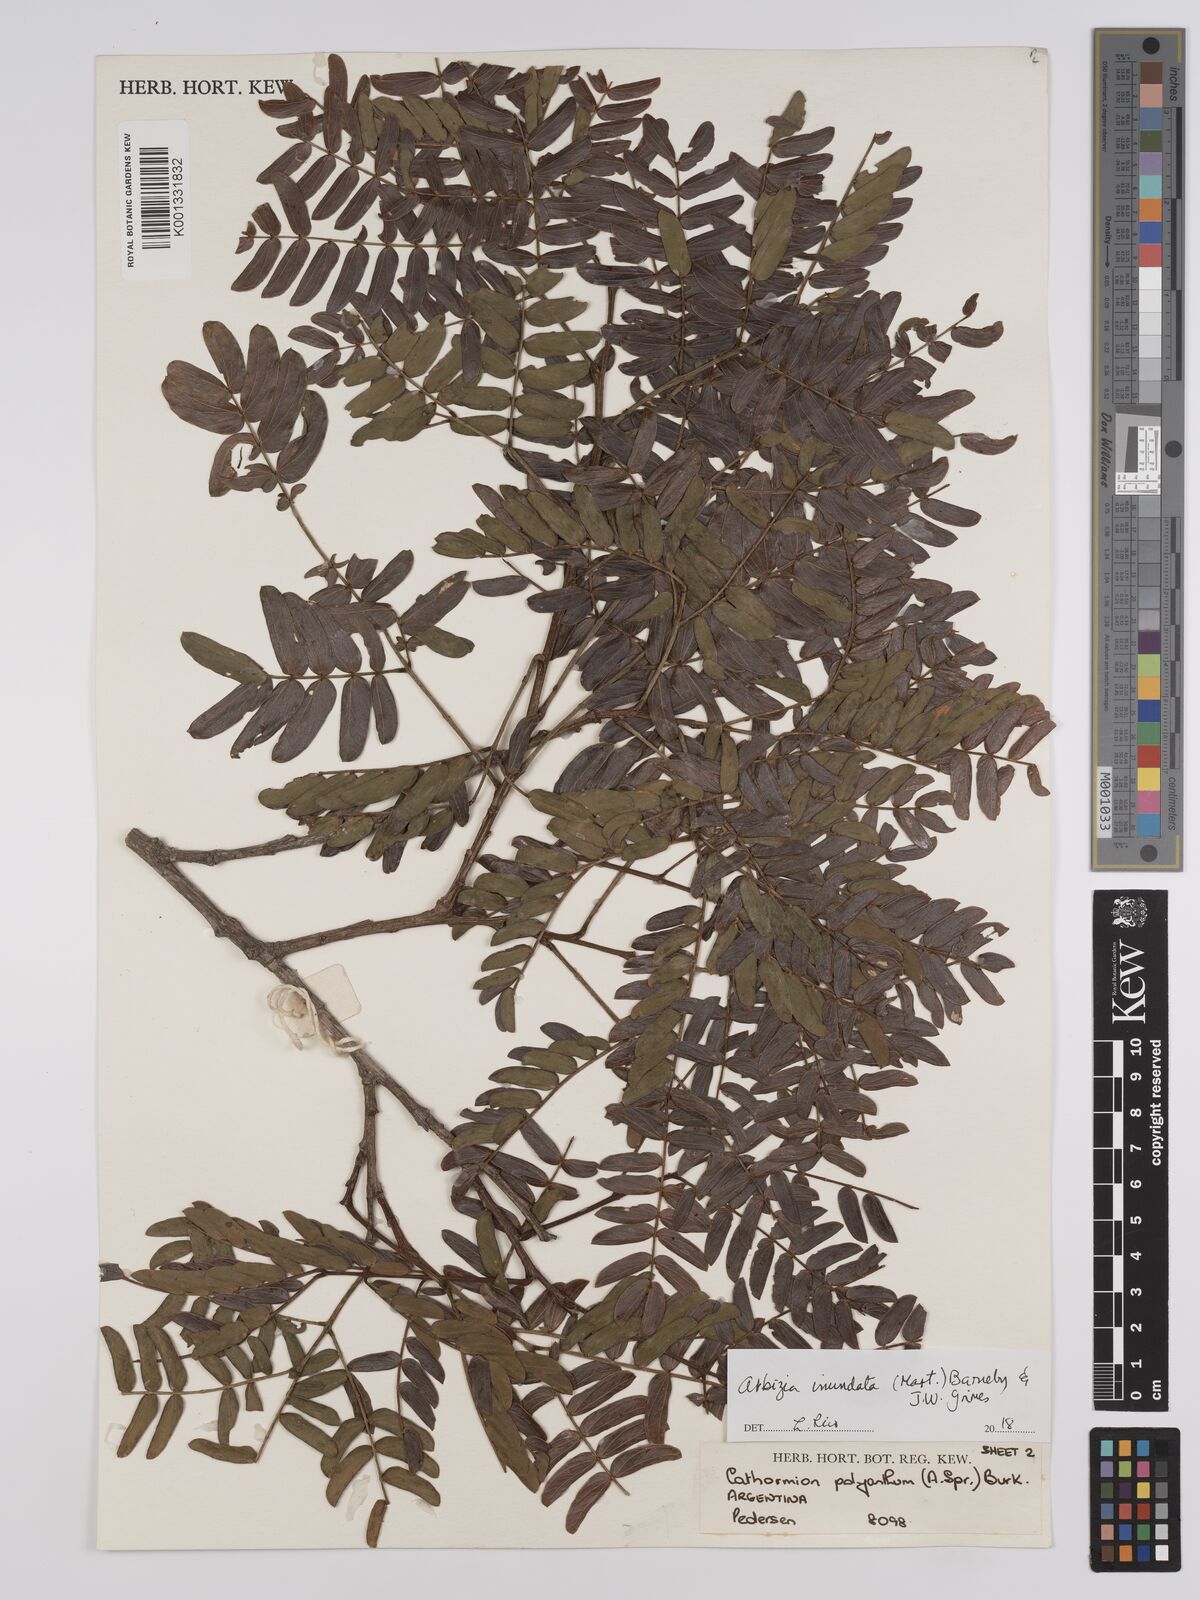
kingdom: Plantae
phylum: Tracheophyta
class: Magnoliopsida
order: Fabales
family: Fabaceae
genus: Albizia
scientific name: Albizia inundata
